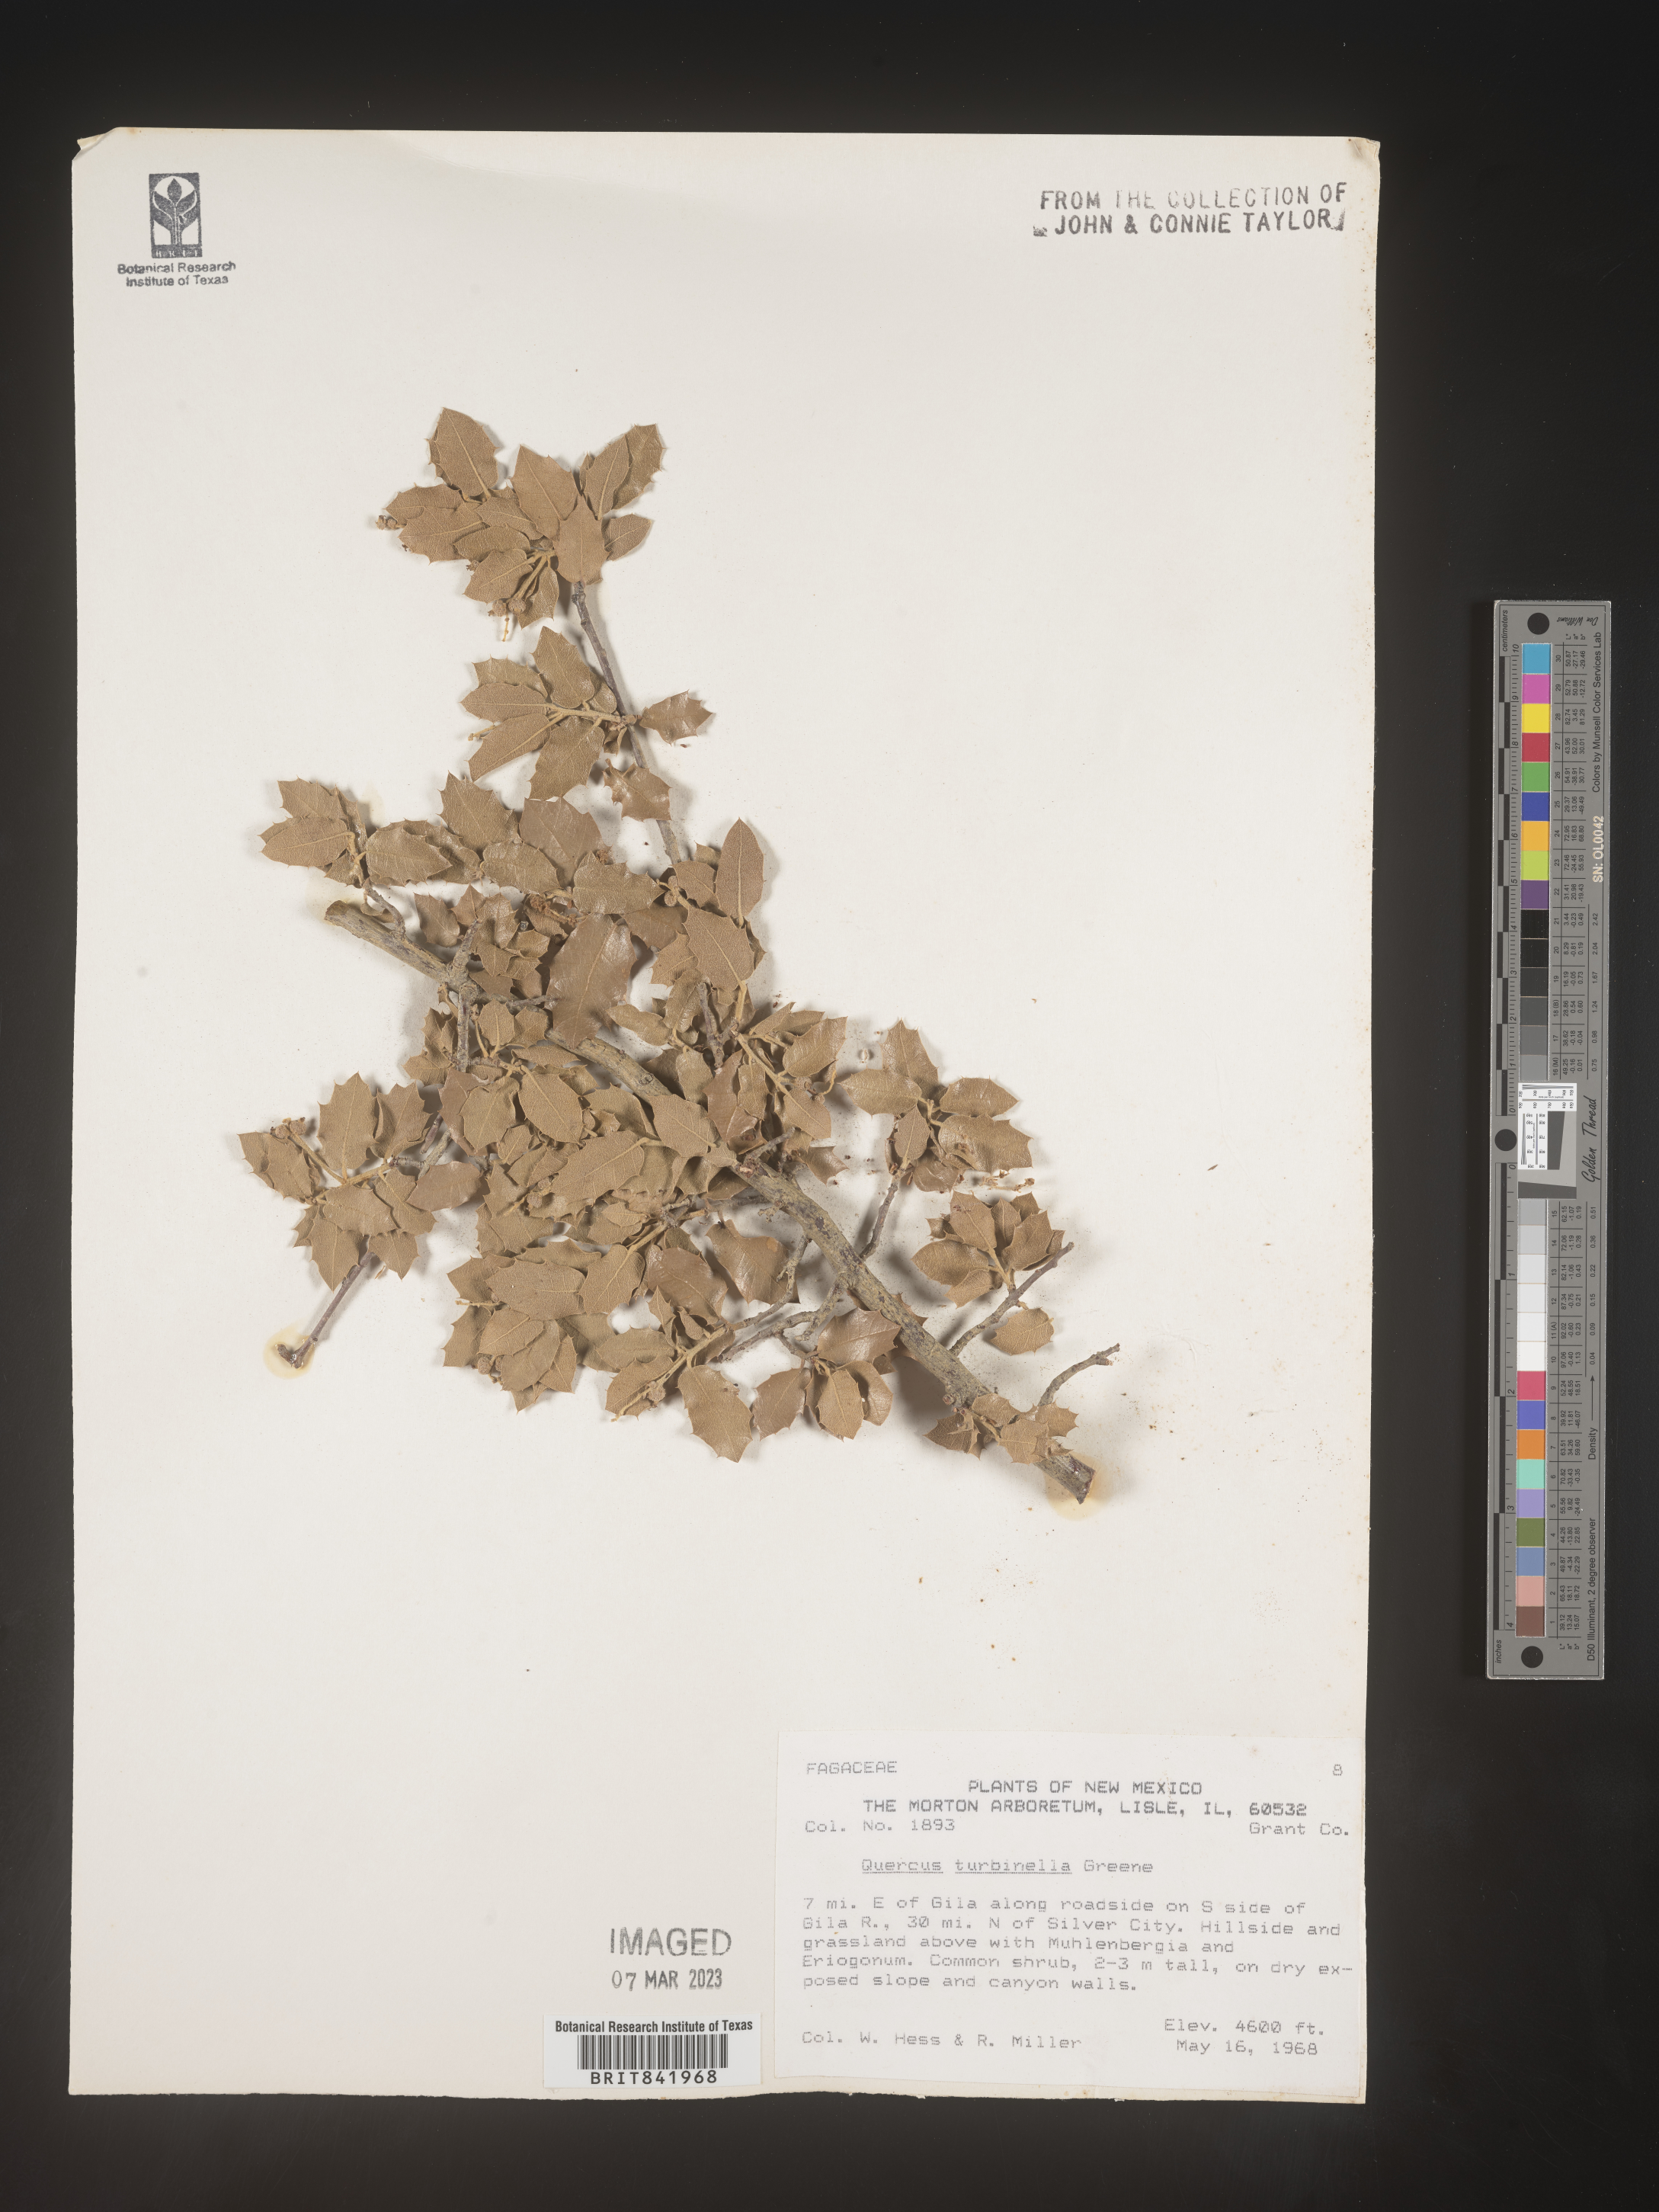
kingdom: Plantae
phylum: Tracheophyta
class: Magnoliopsida
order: Fagales
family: Fagaceae
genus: Quercus
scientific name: Quercus turbinella
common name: Sonoran scrub oak
